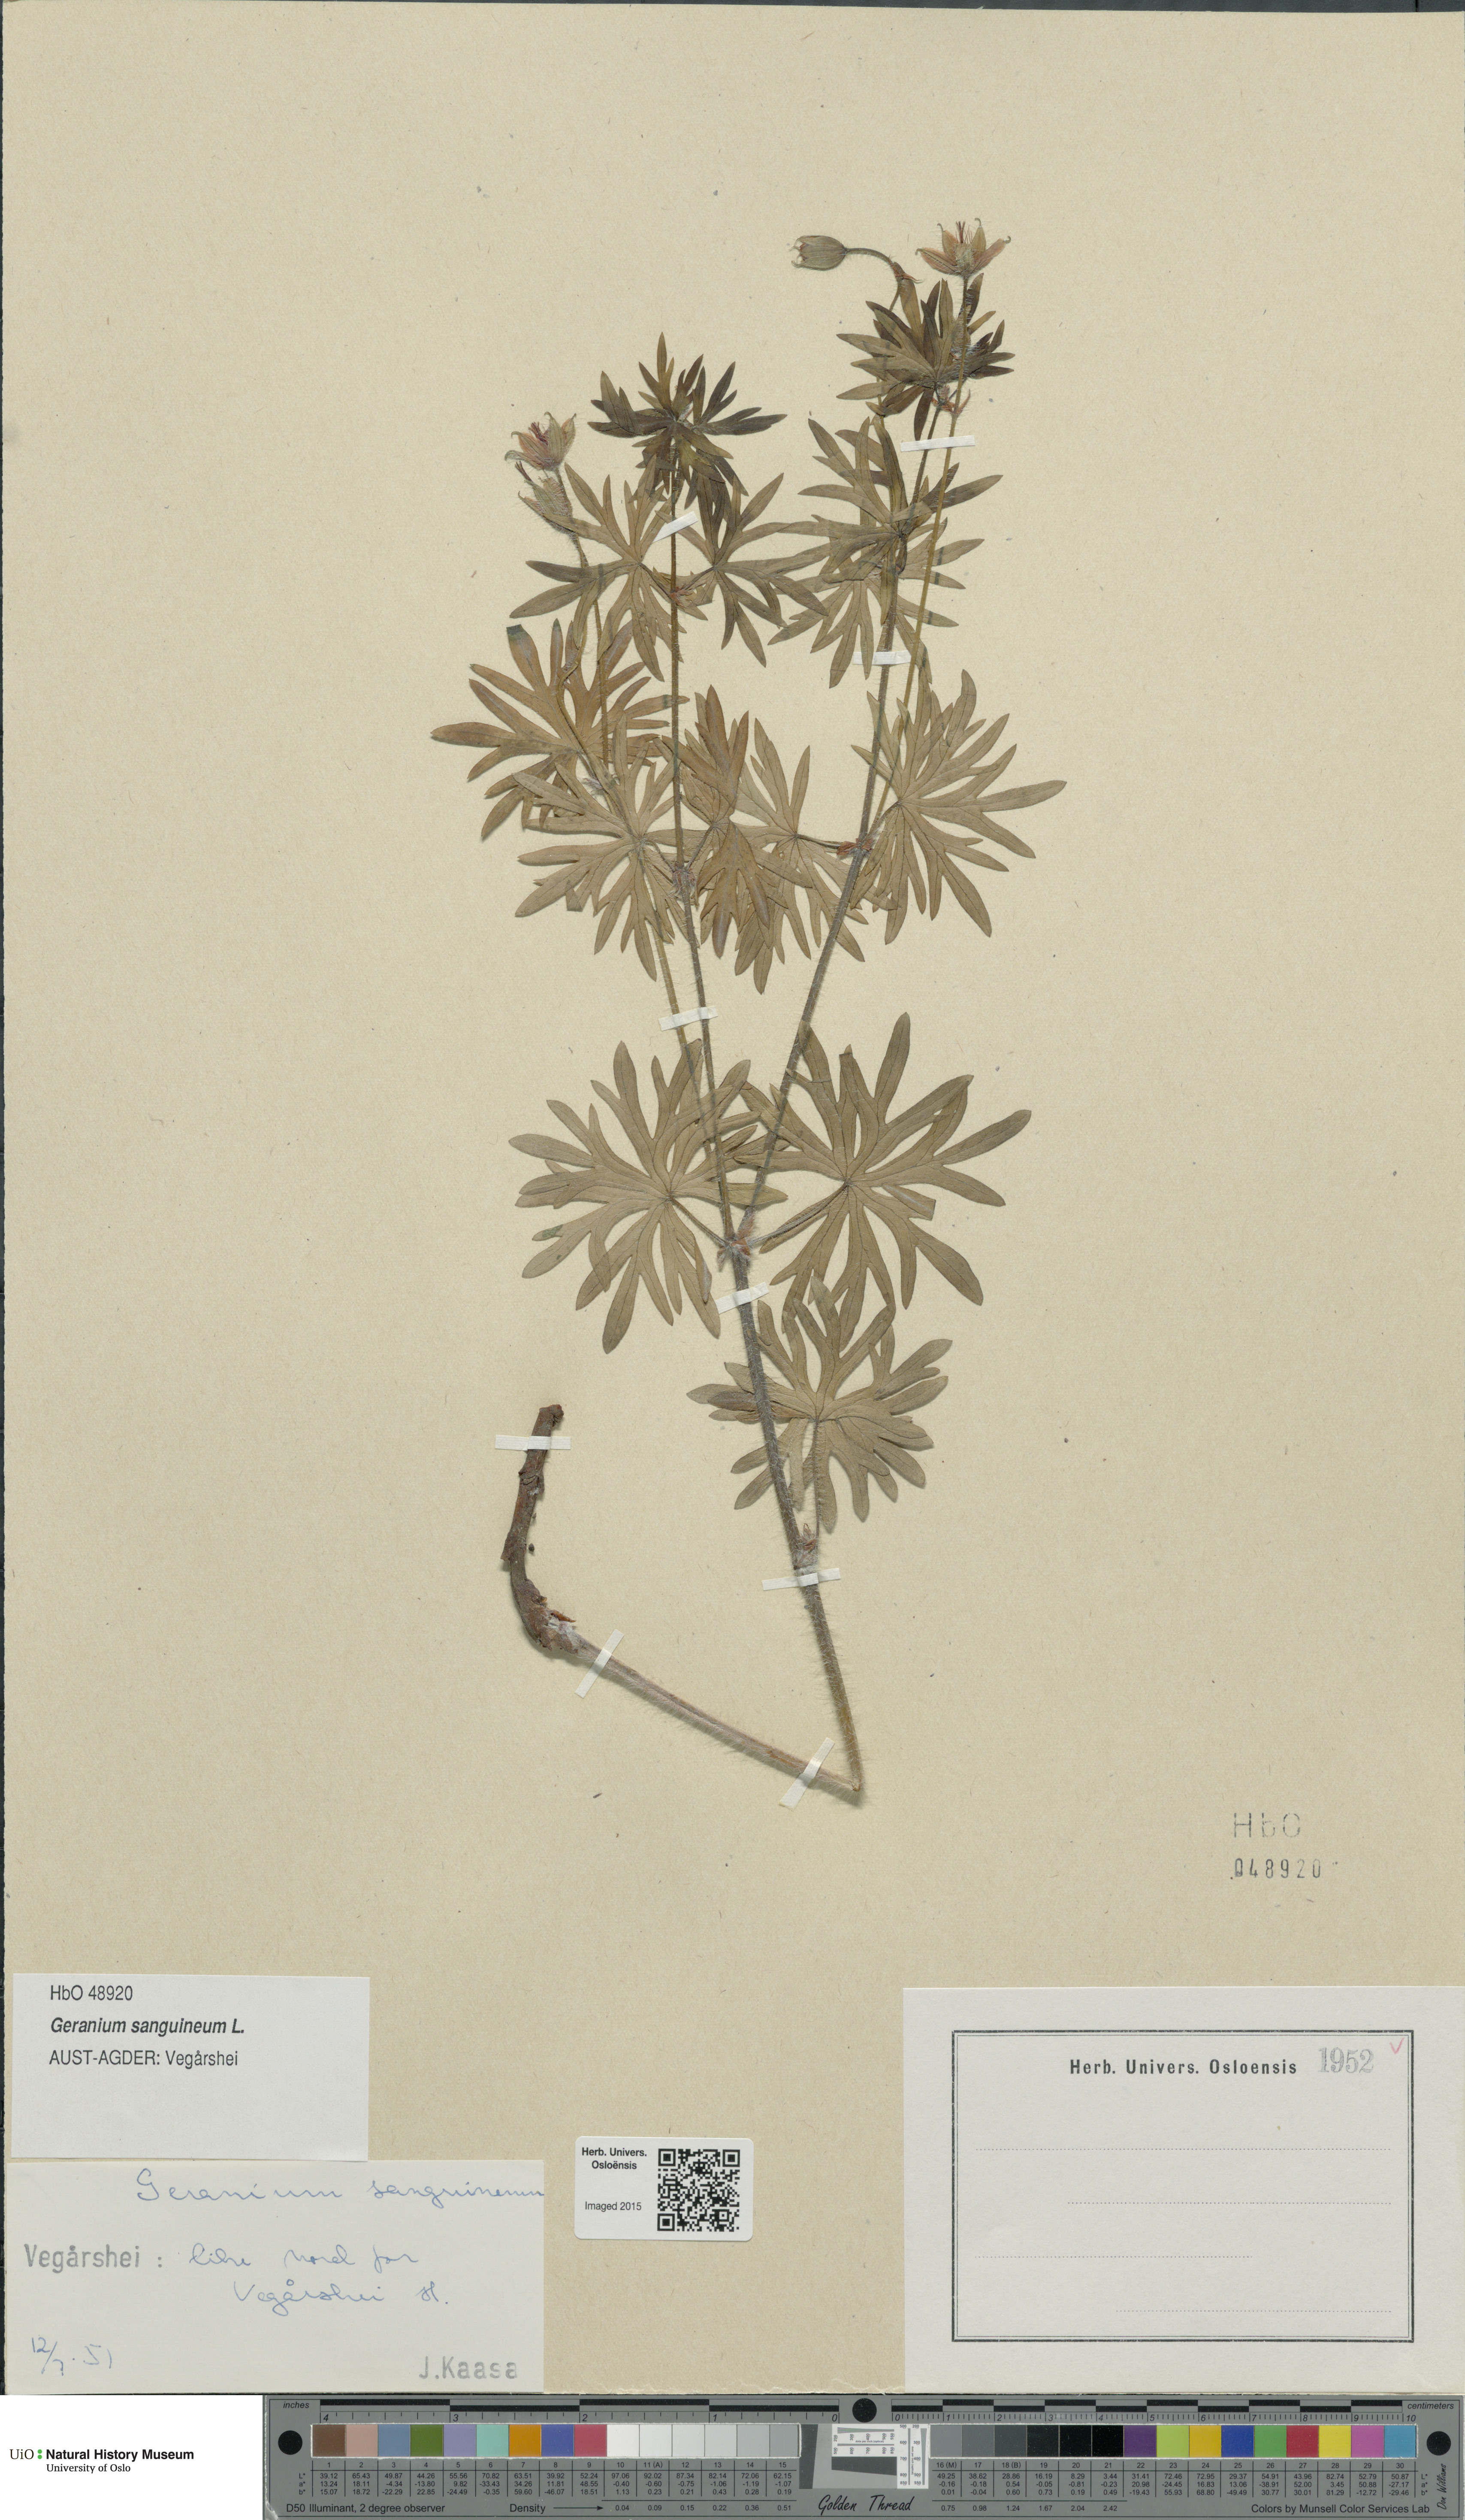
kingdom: Plantae
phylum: Tracheophyta
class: Magnoliopsida
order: Geraniales
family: Geraniaceae
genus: Geranium
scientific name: Geranium sanguineum
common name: Bloody crane's-bill
